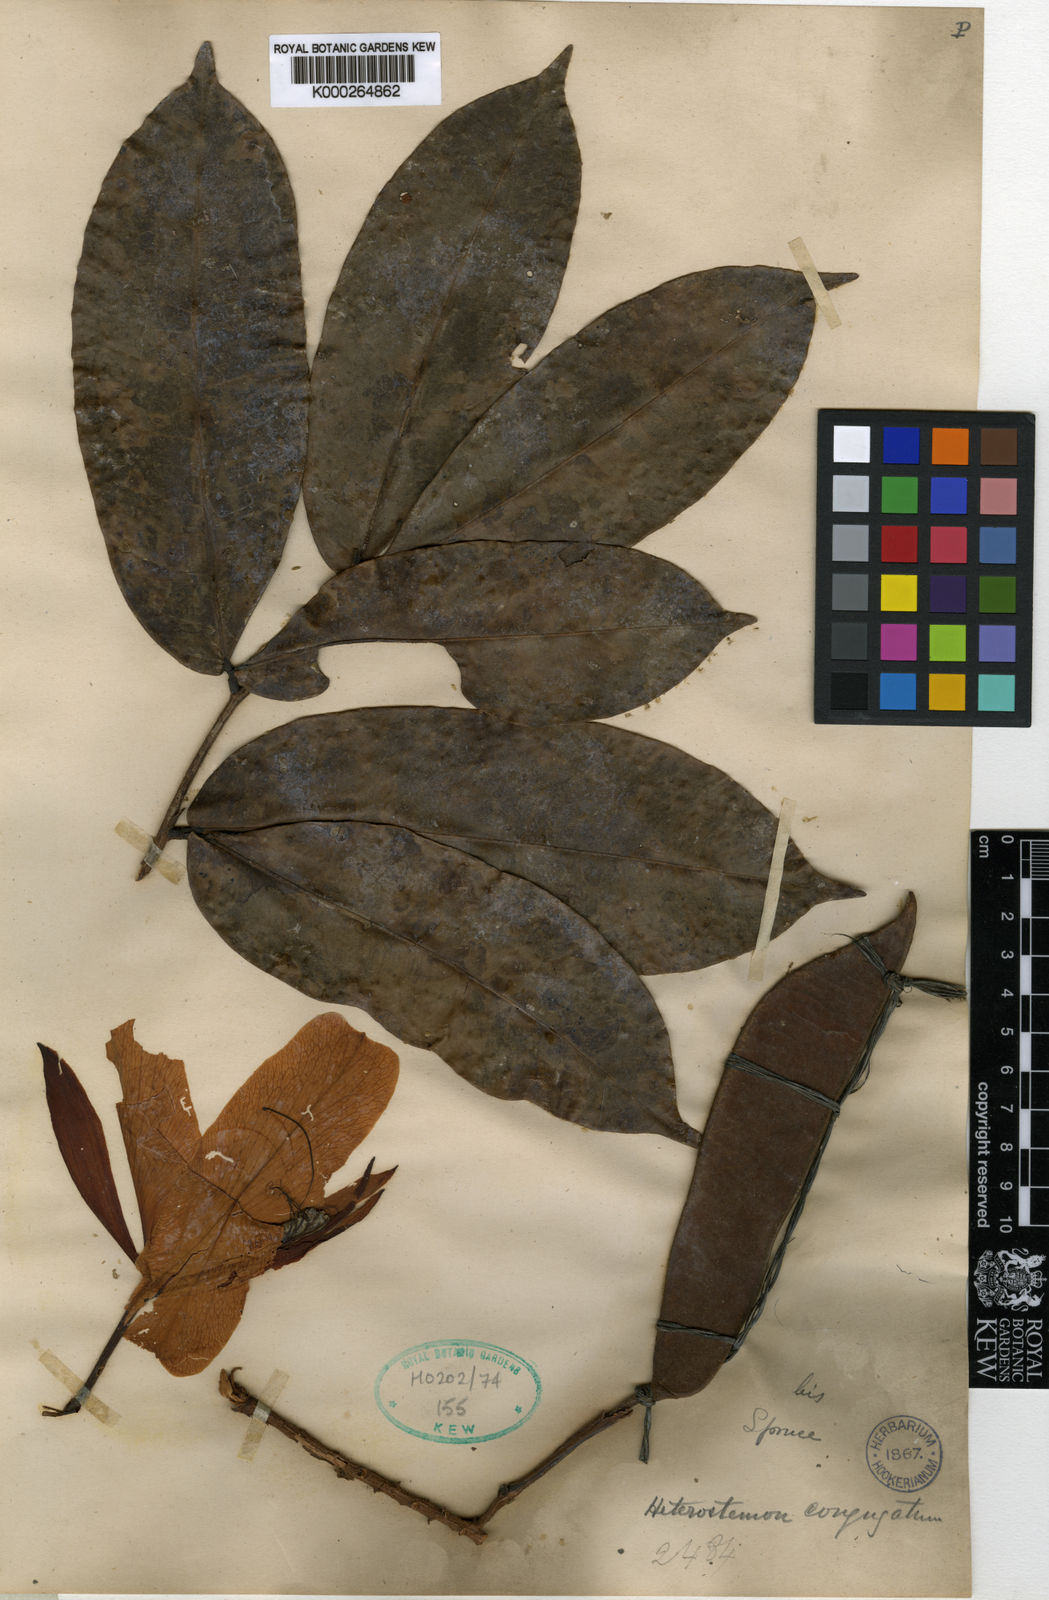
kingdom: Plantae
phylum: Tracheophyta
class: Magnoliopsida
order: Fabales
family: Fabaceae
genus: Heterostemon
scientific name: Heterostemon conjugatus
